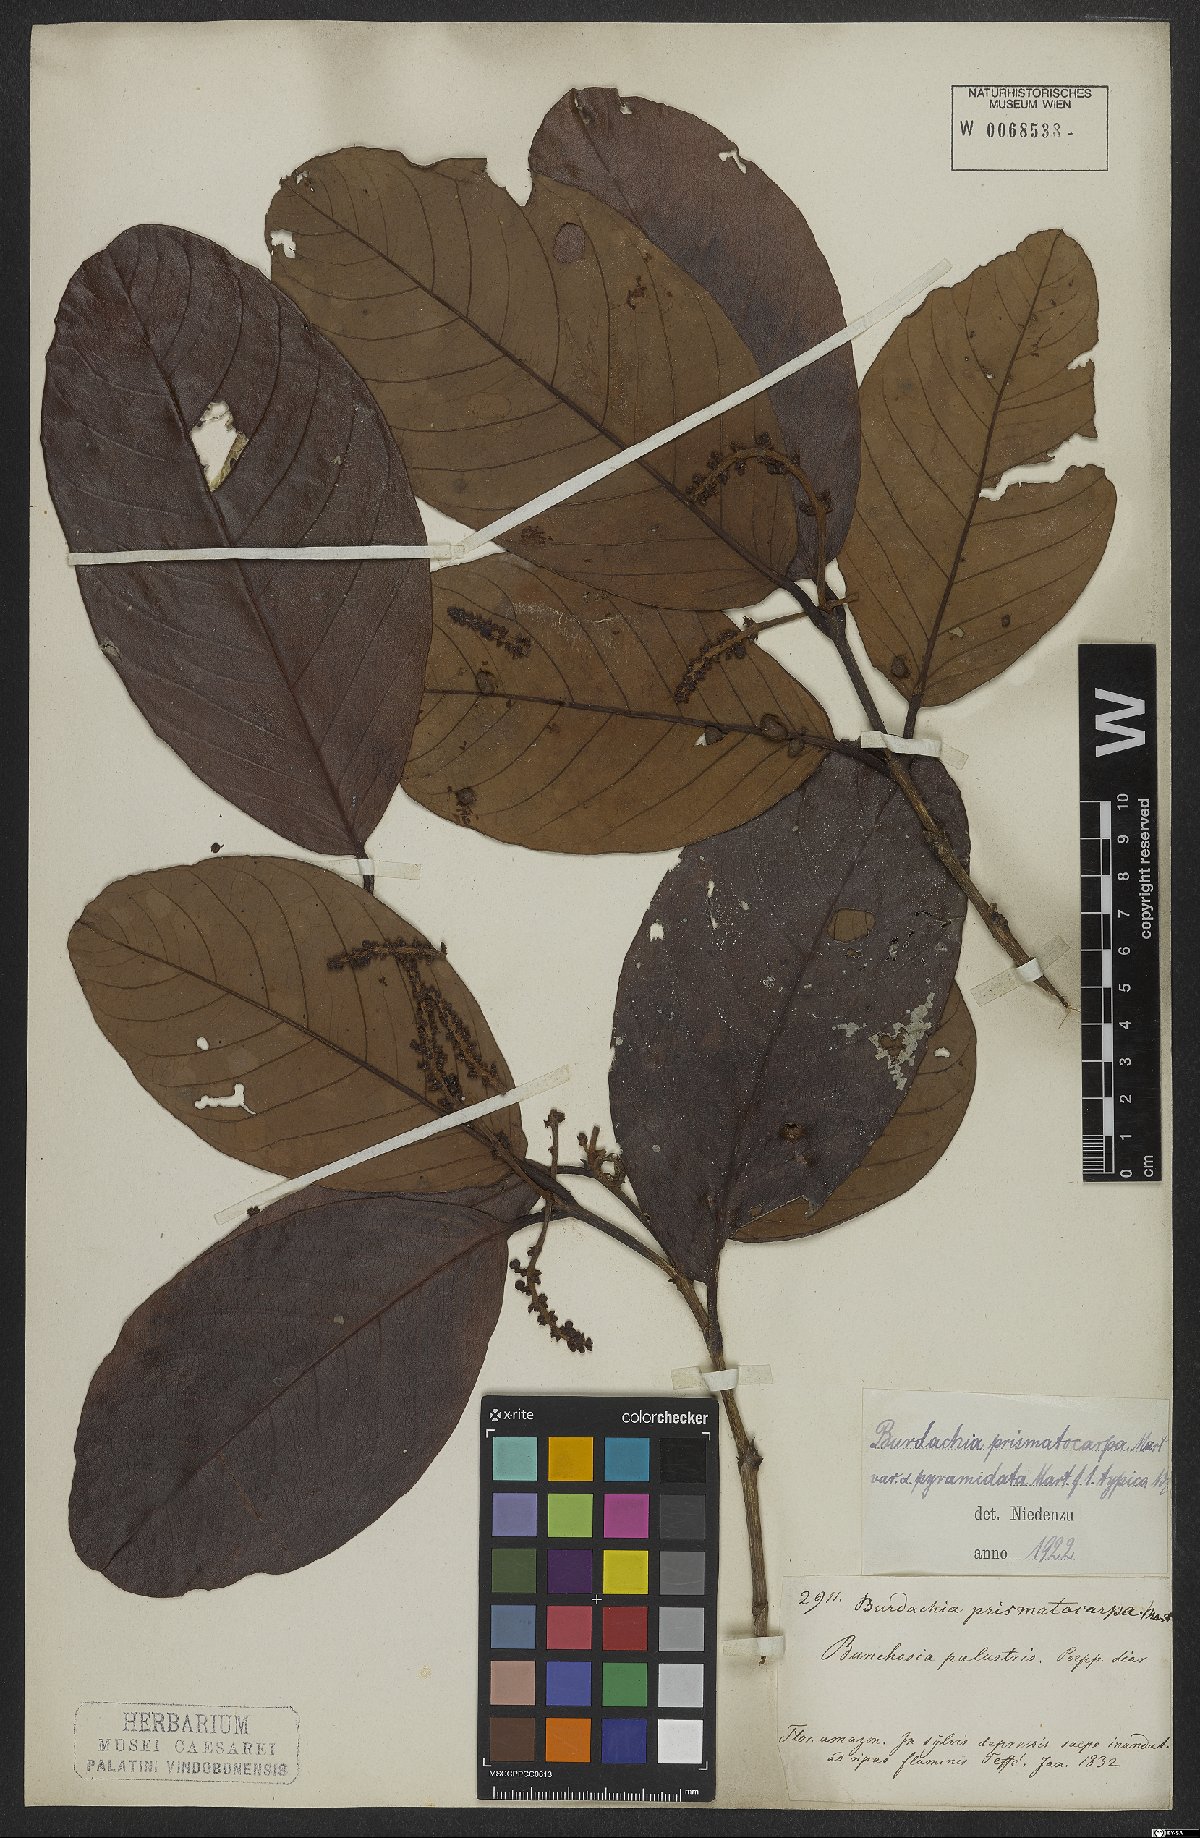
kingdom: Plantae
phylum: Tracheophyta
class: Magnoliopsida
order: Malpighiales
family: Malpighiaceae
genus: Burdachia
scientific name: Burdachia prismatocarpa
